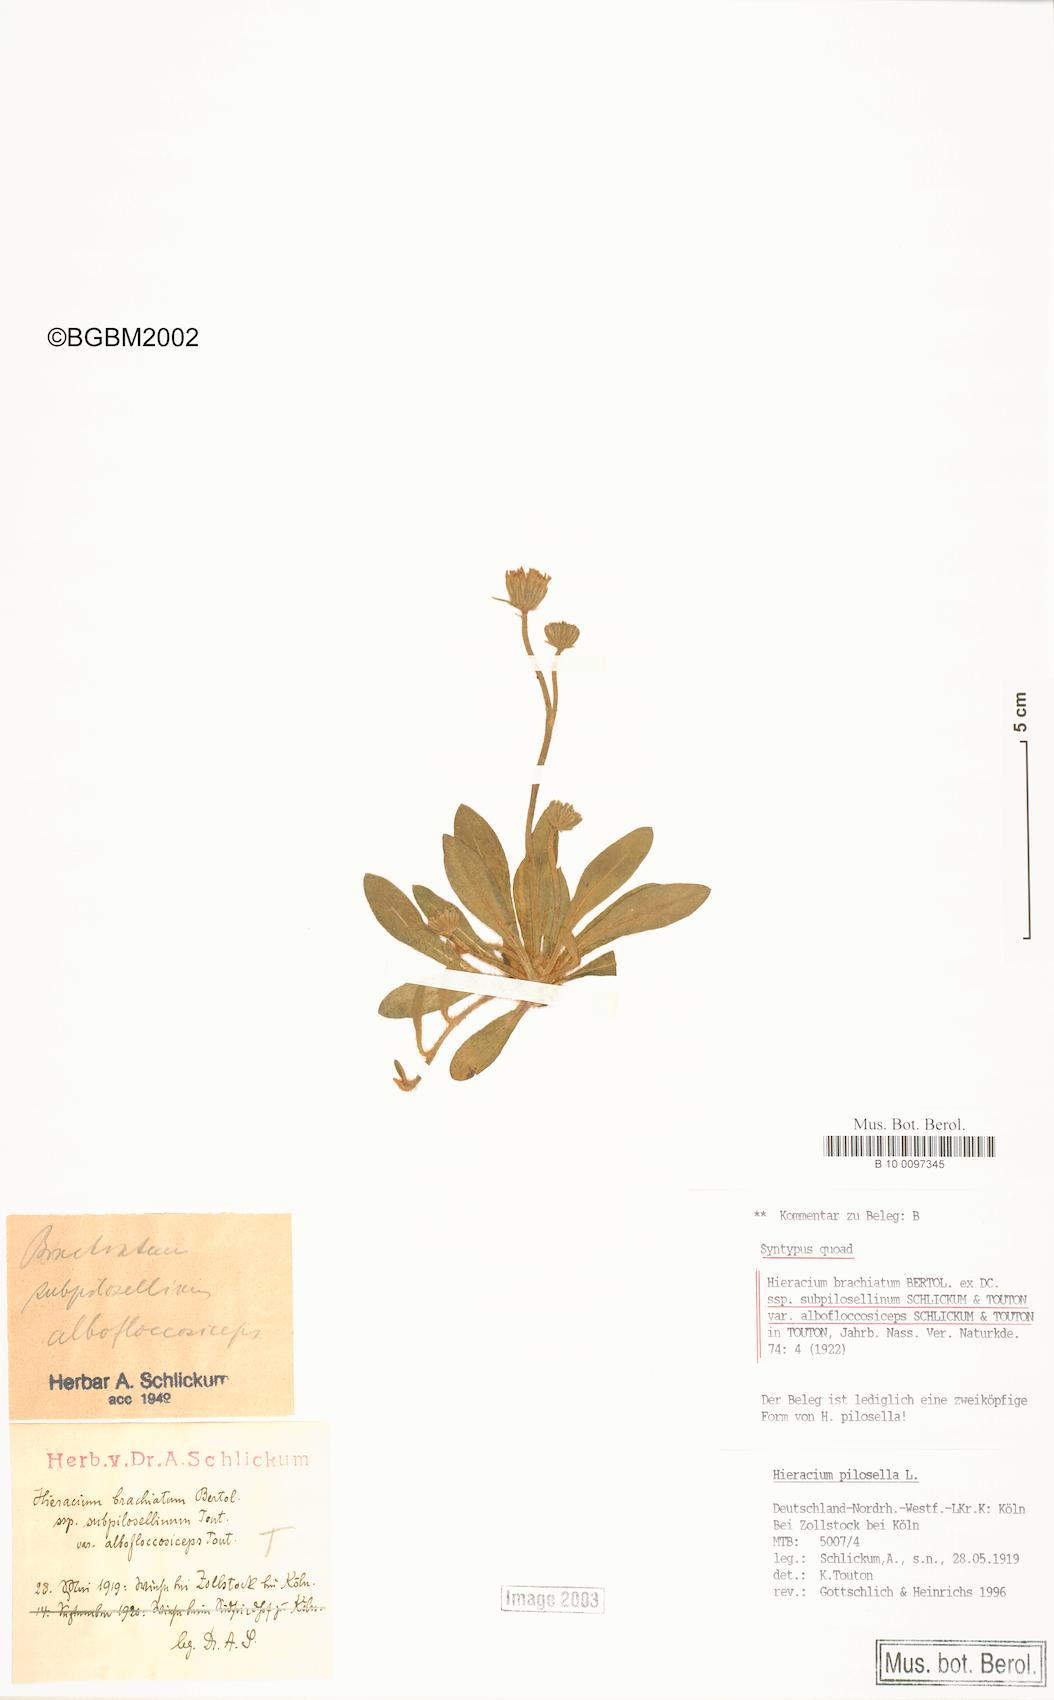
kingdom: Plantae
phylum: Tracheophyta
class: Magnoliopsida
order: Asterales
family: Asteraceae
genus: Pilosella
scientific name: Pilosella acutifolia
